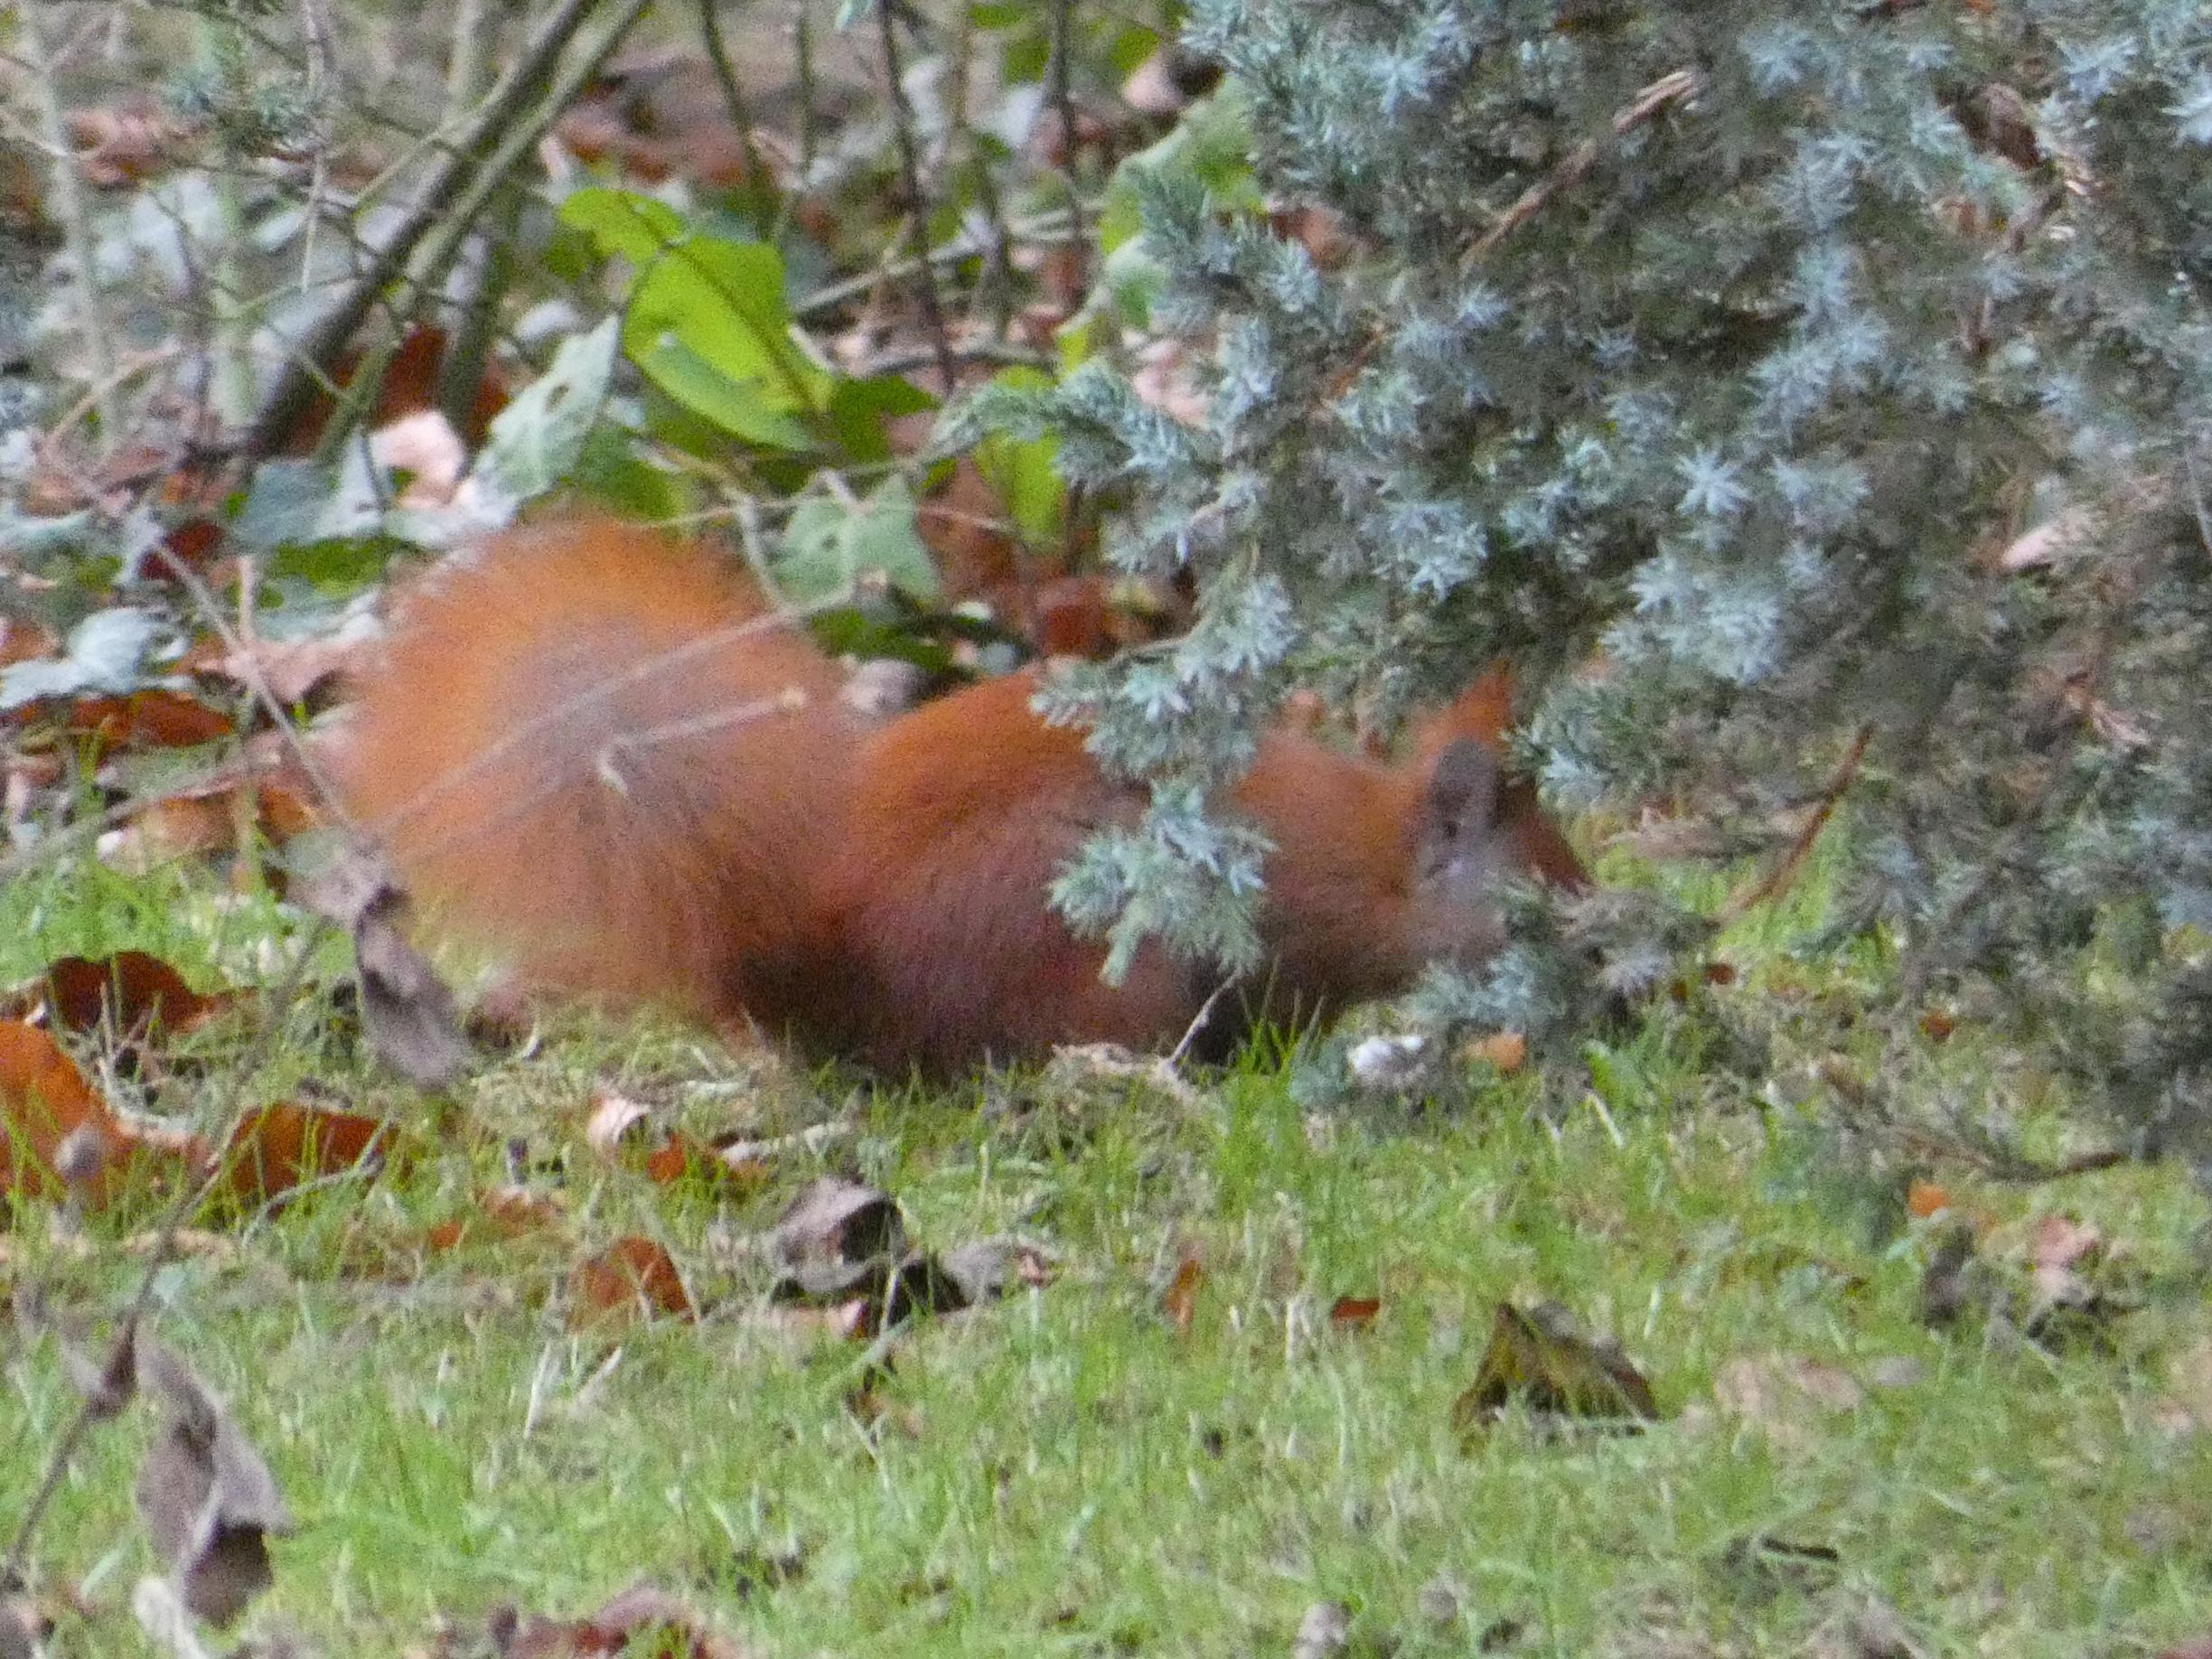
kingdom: Animalia
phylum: Chordata
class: Mammalia
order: Rodentia
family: Sciuridae
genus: Sciurus
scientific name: Sciurus vulgaris
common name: Egern
